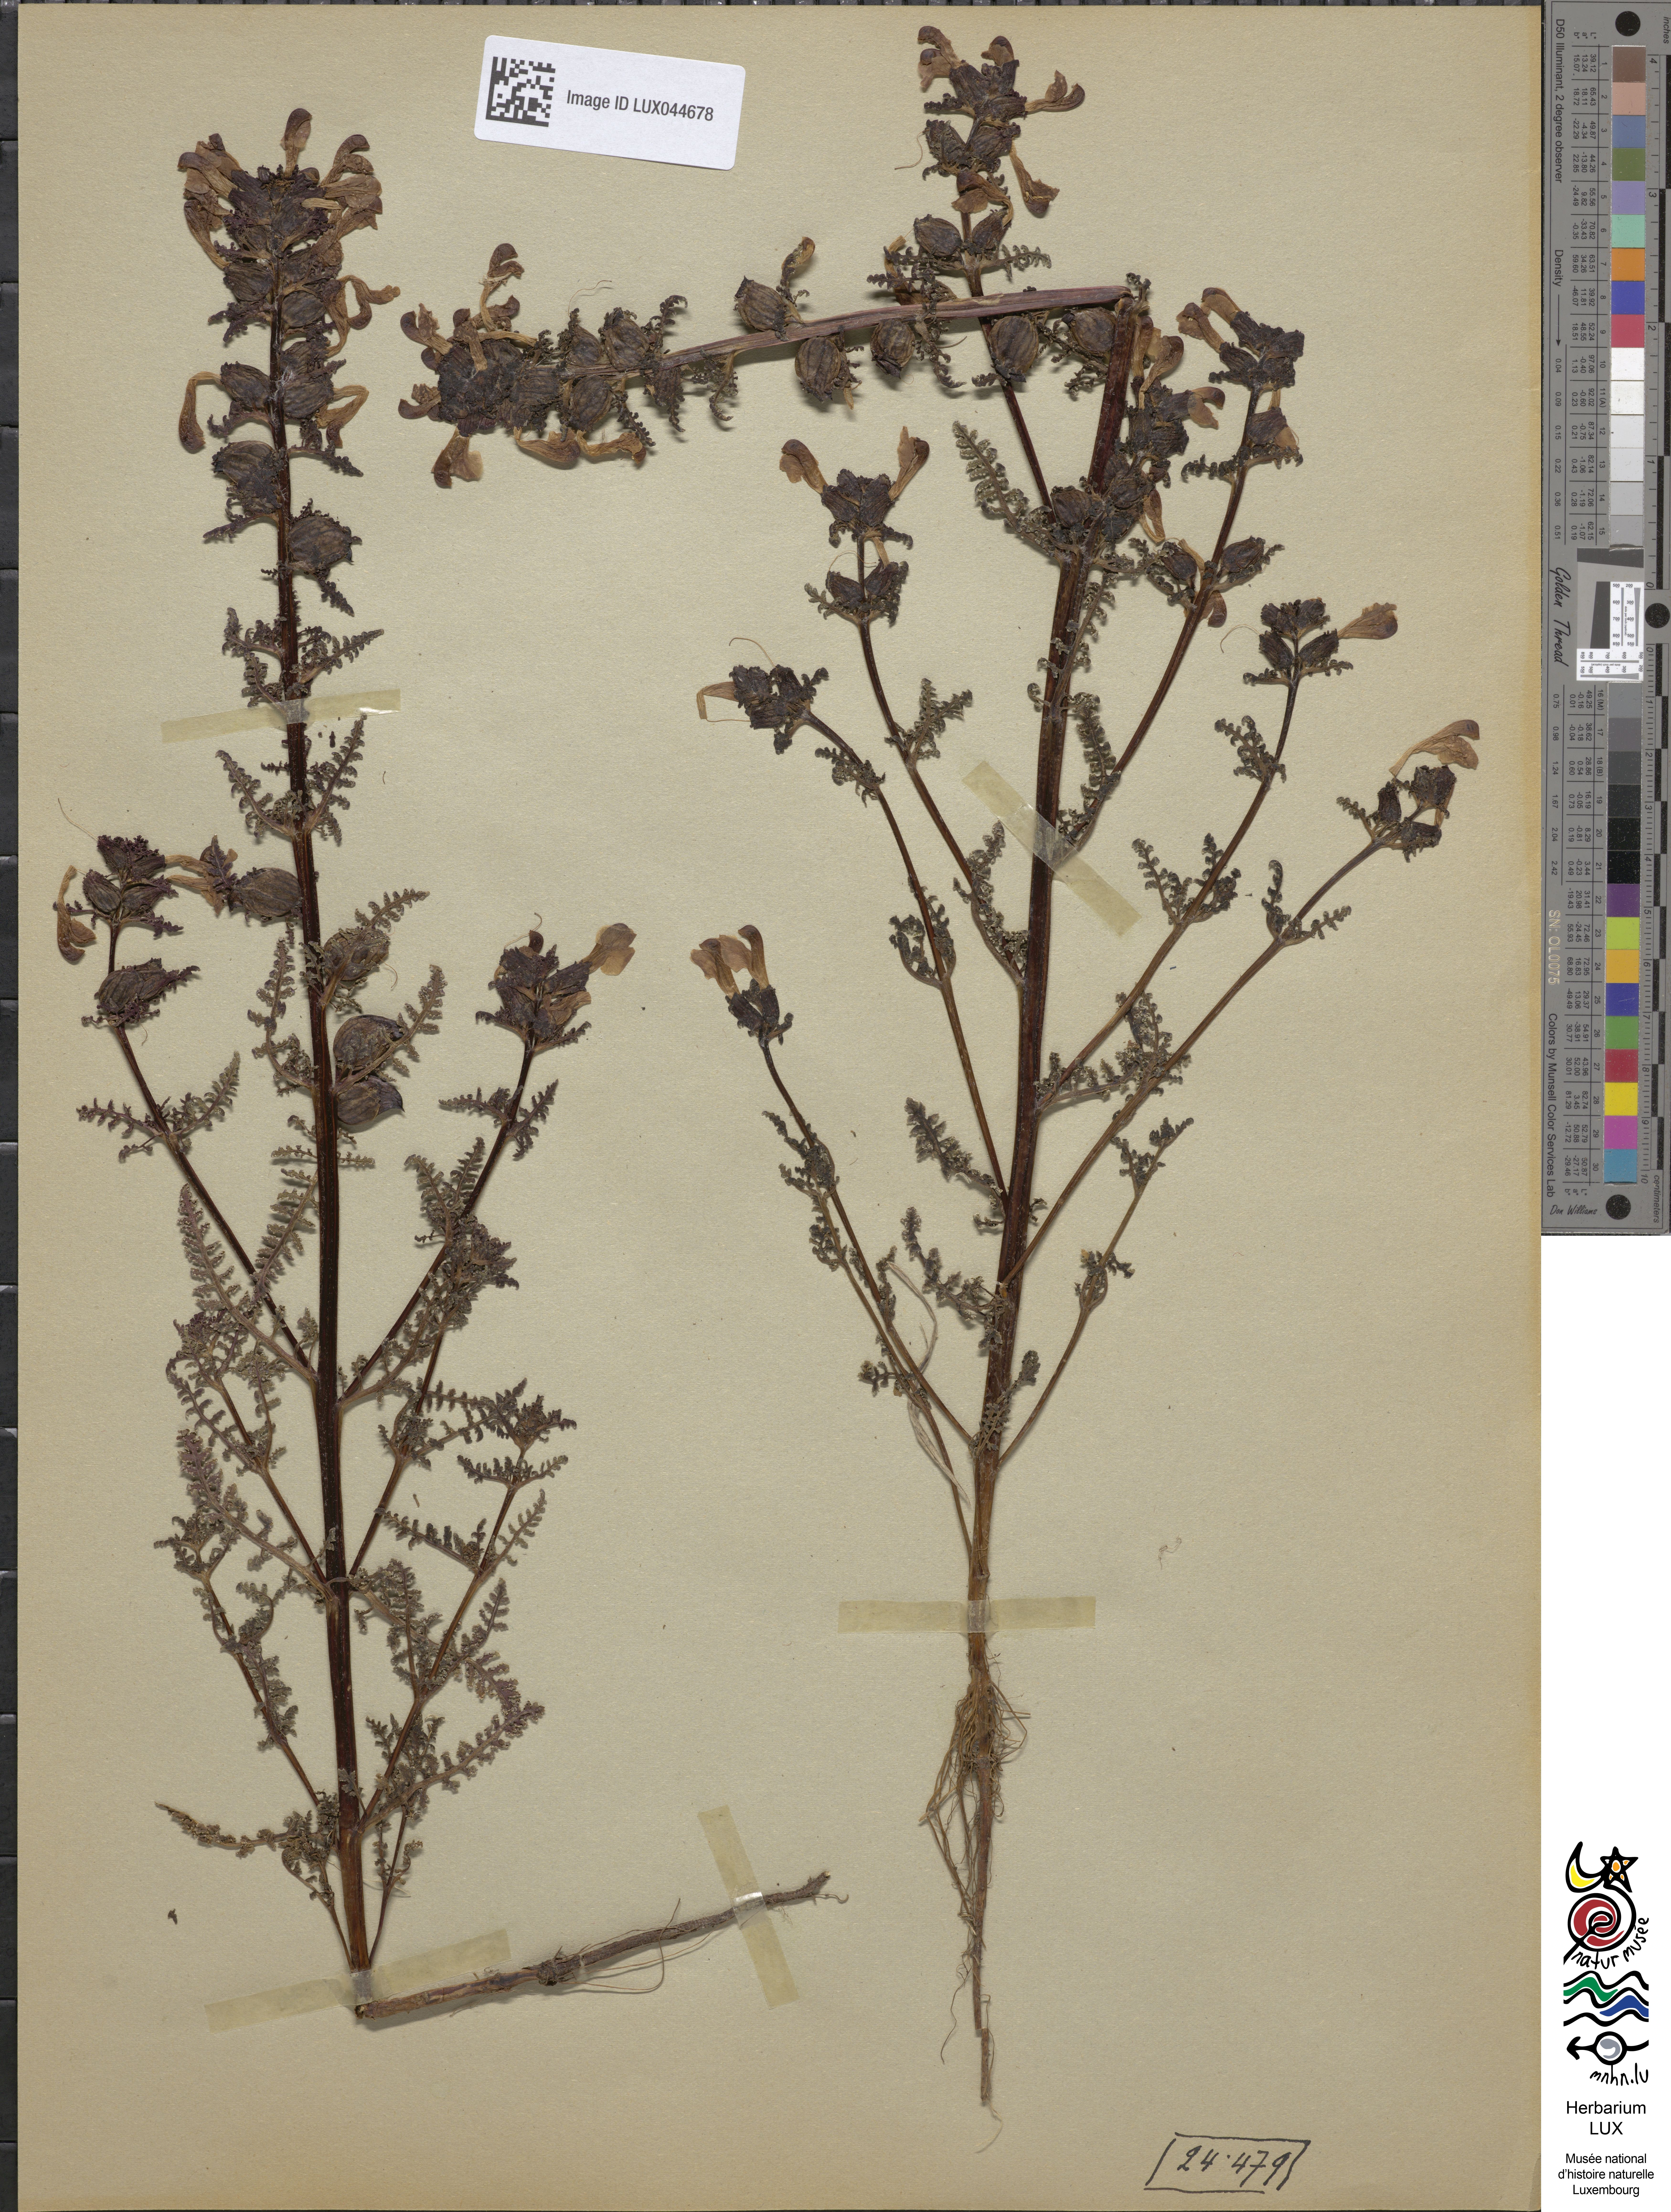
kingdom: Plantae
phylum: Tracheophyta
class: Magnoliopsida
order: Lamiales
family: Orobanchaceae
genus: Pedicularis
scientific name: Pedicularis palustris
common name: Marsh lousewort
